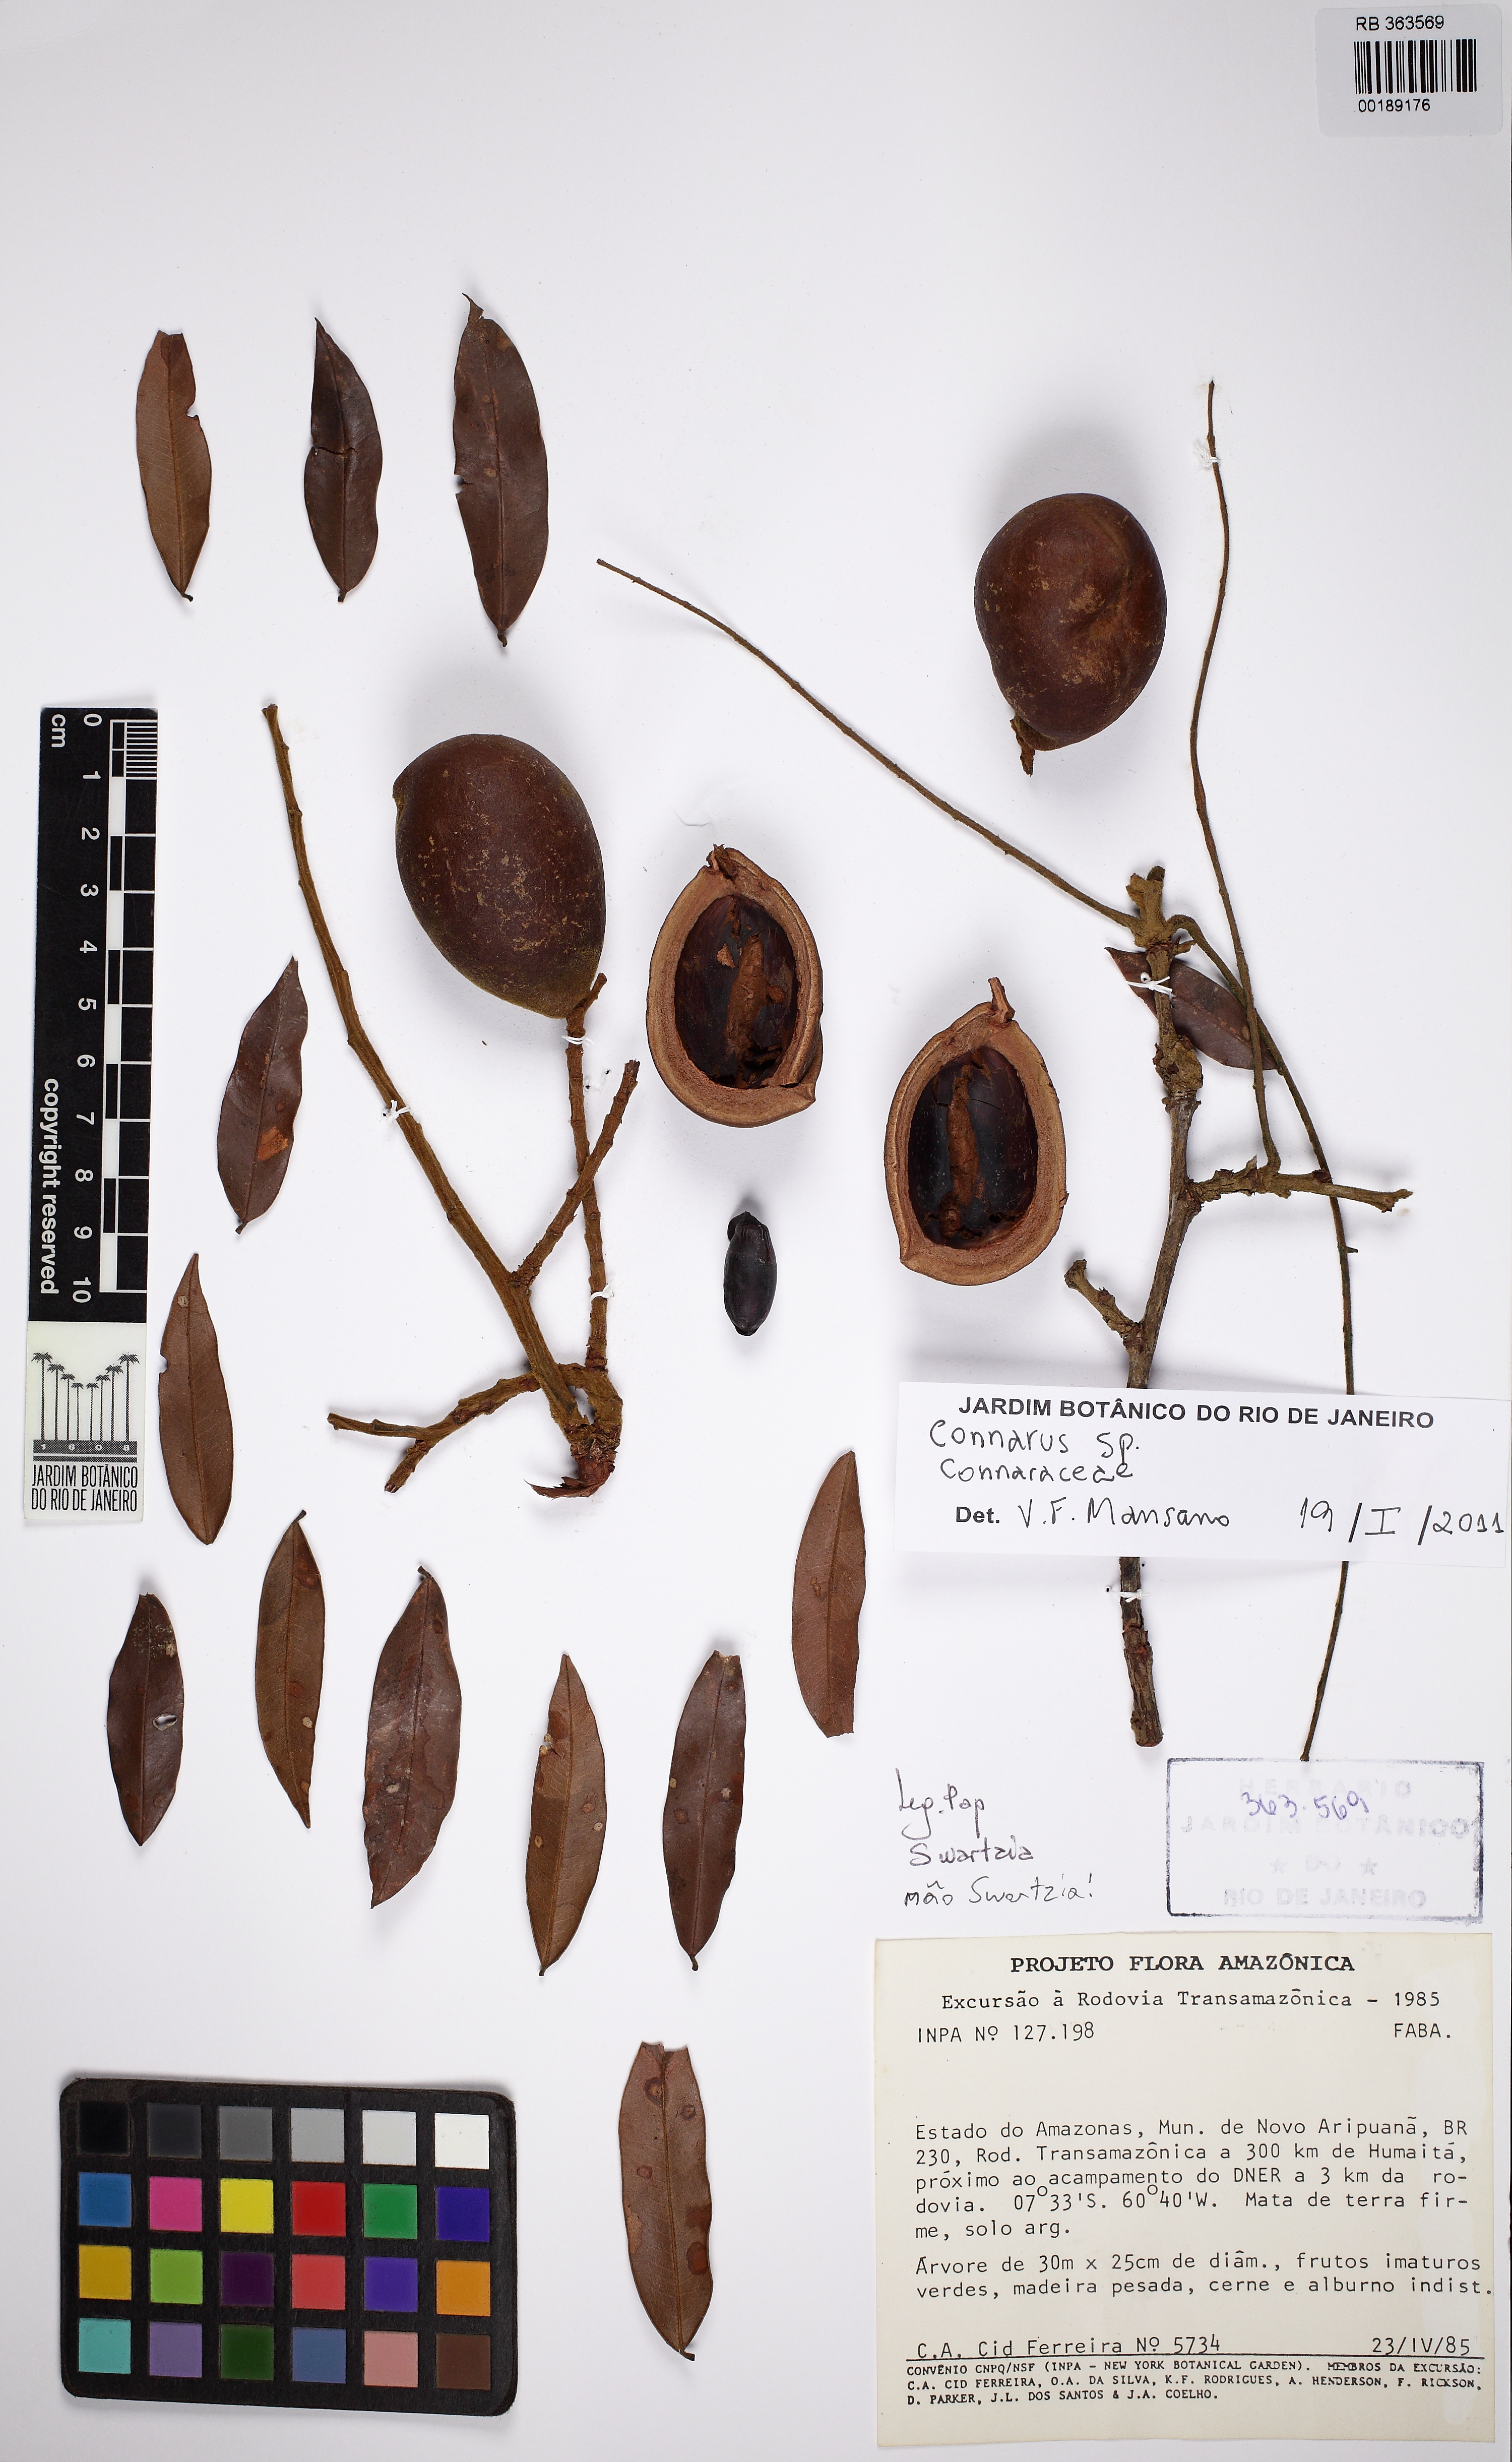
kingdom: Plantae
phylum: Tracheophyta
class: Magnoliopsida
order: Oxalidales
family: Connaraceae
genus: Connarus
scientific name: Connarus
